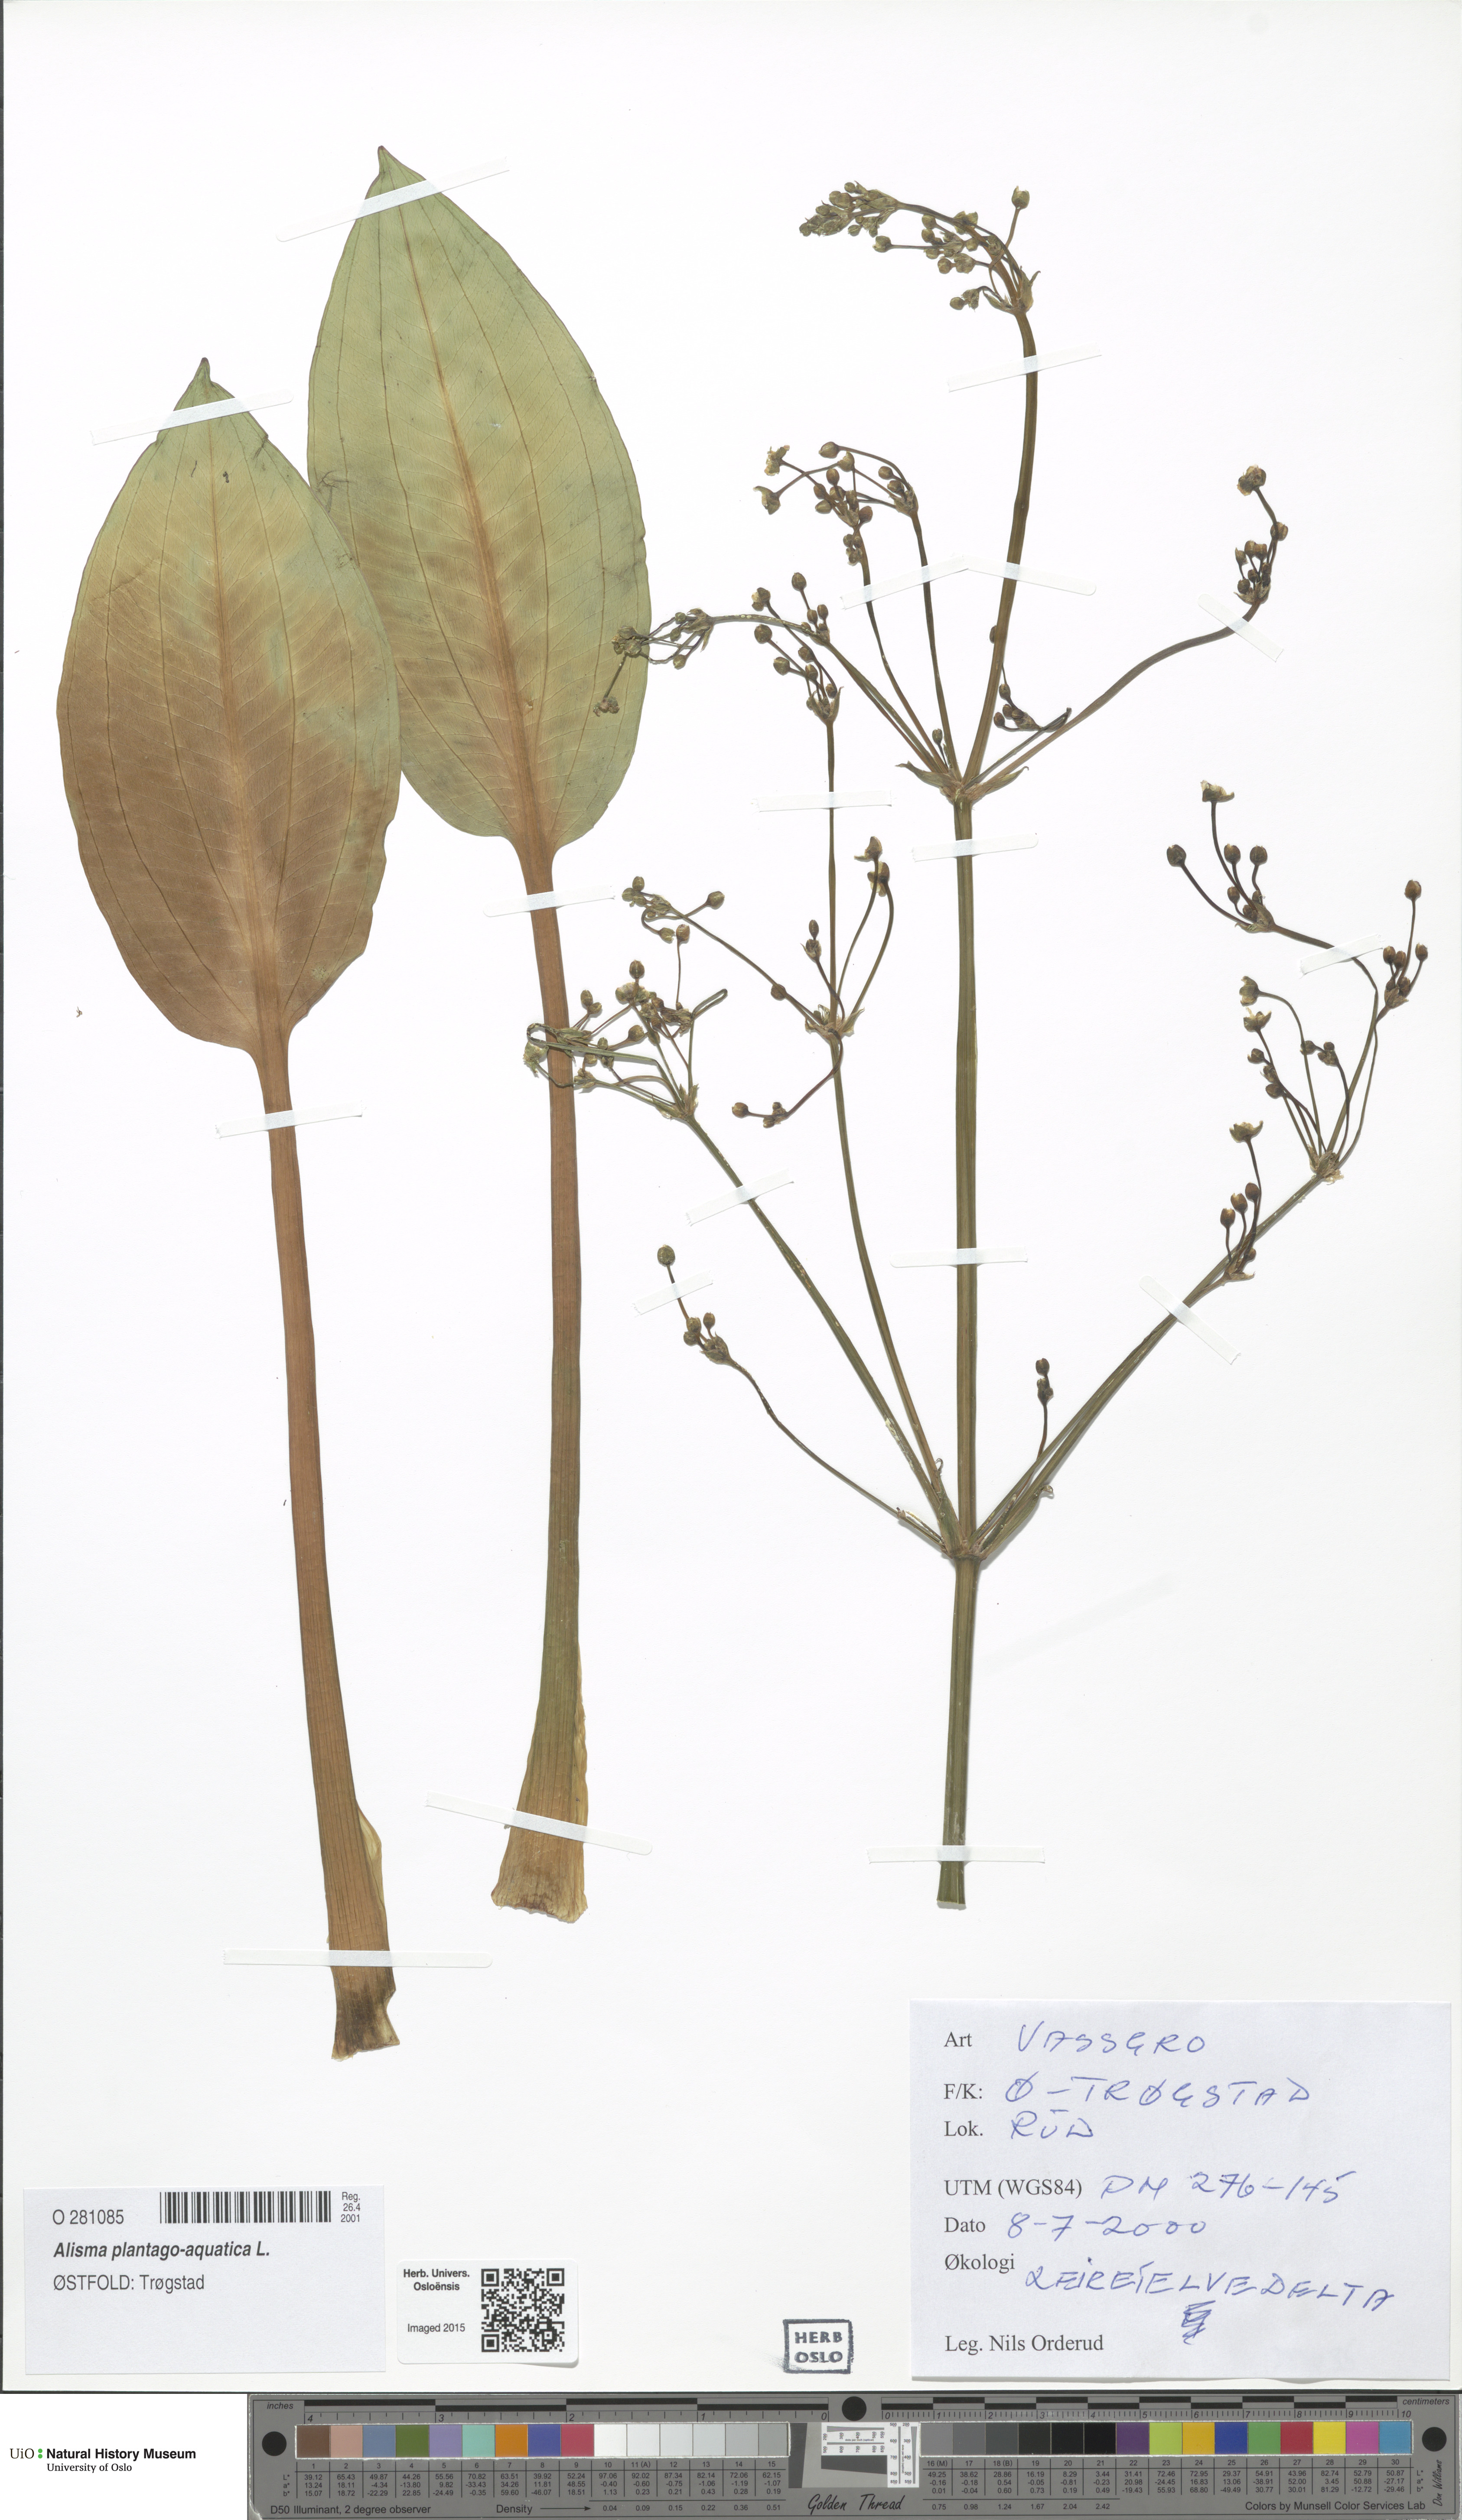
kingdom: Plantae
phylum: Tracheophyta
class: Liliopsida
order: Alismatales
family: Alismataceae
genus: Alisma
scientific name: Alisma plantago-aquatica
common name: Water-plantain
